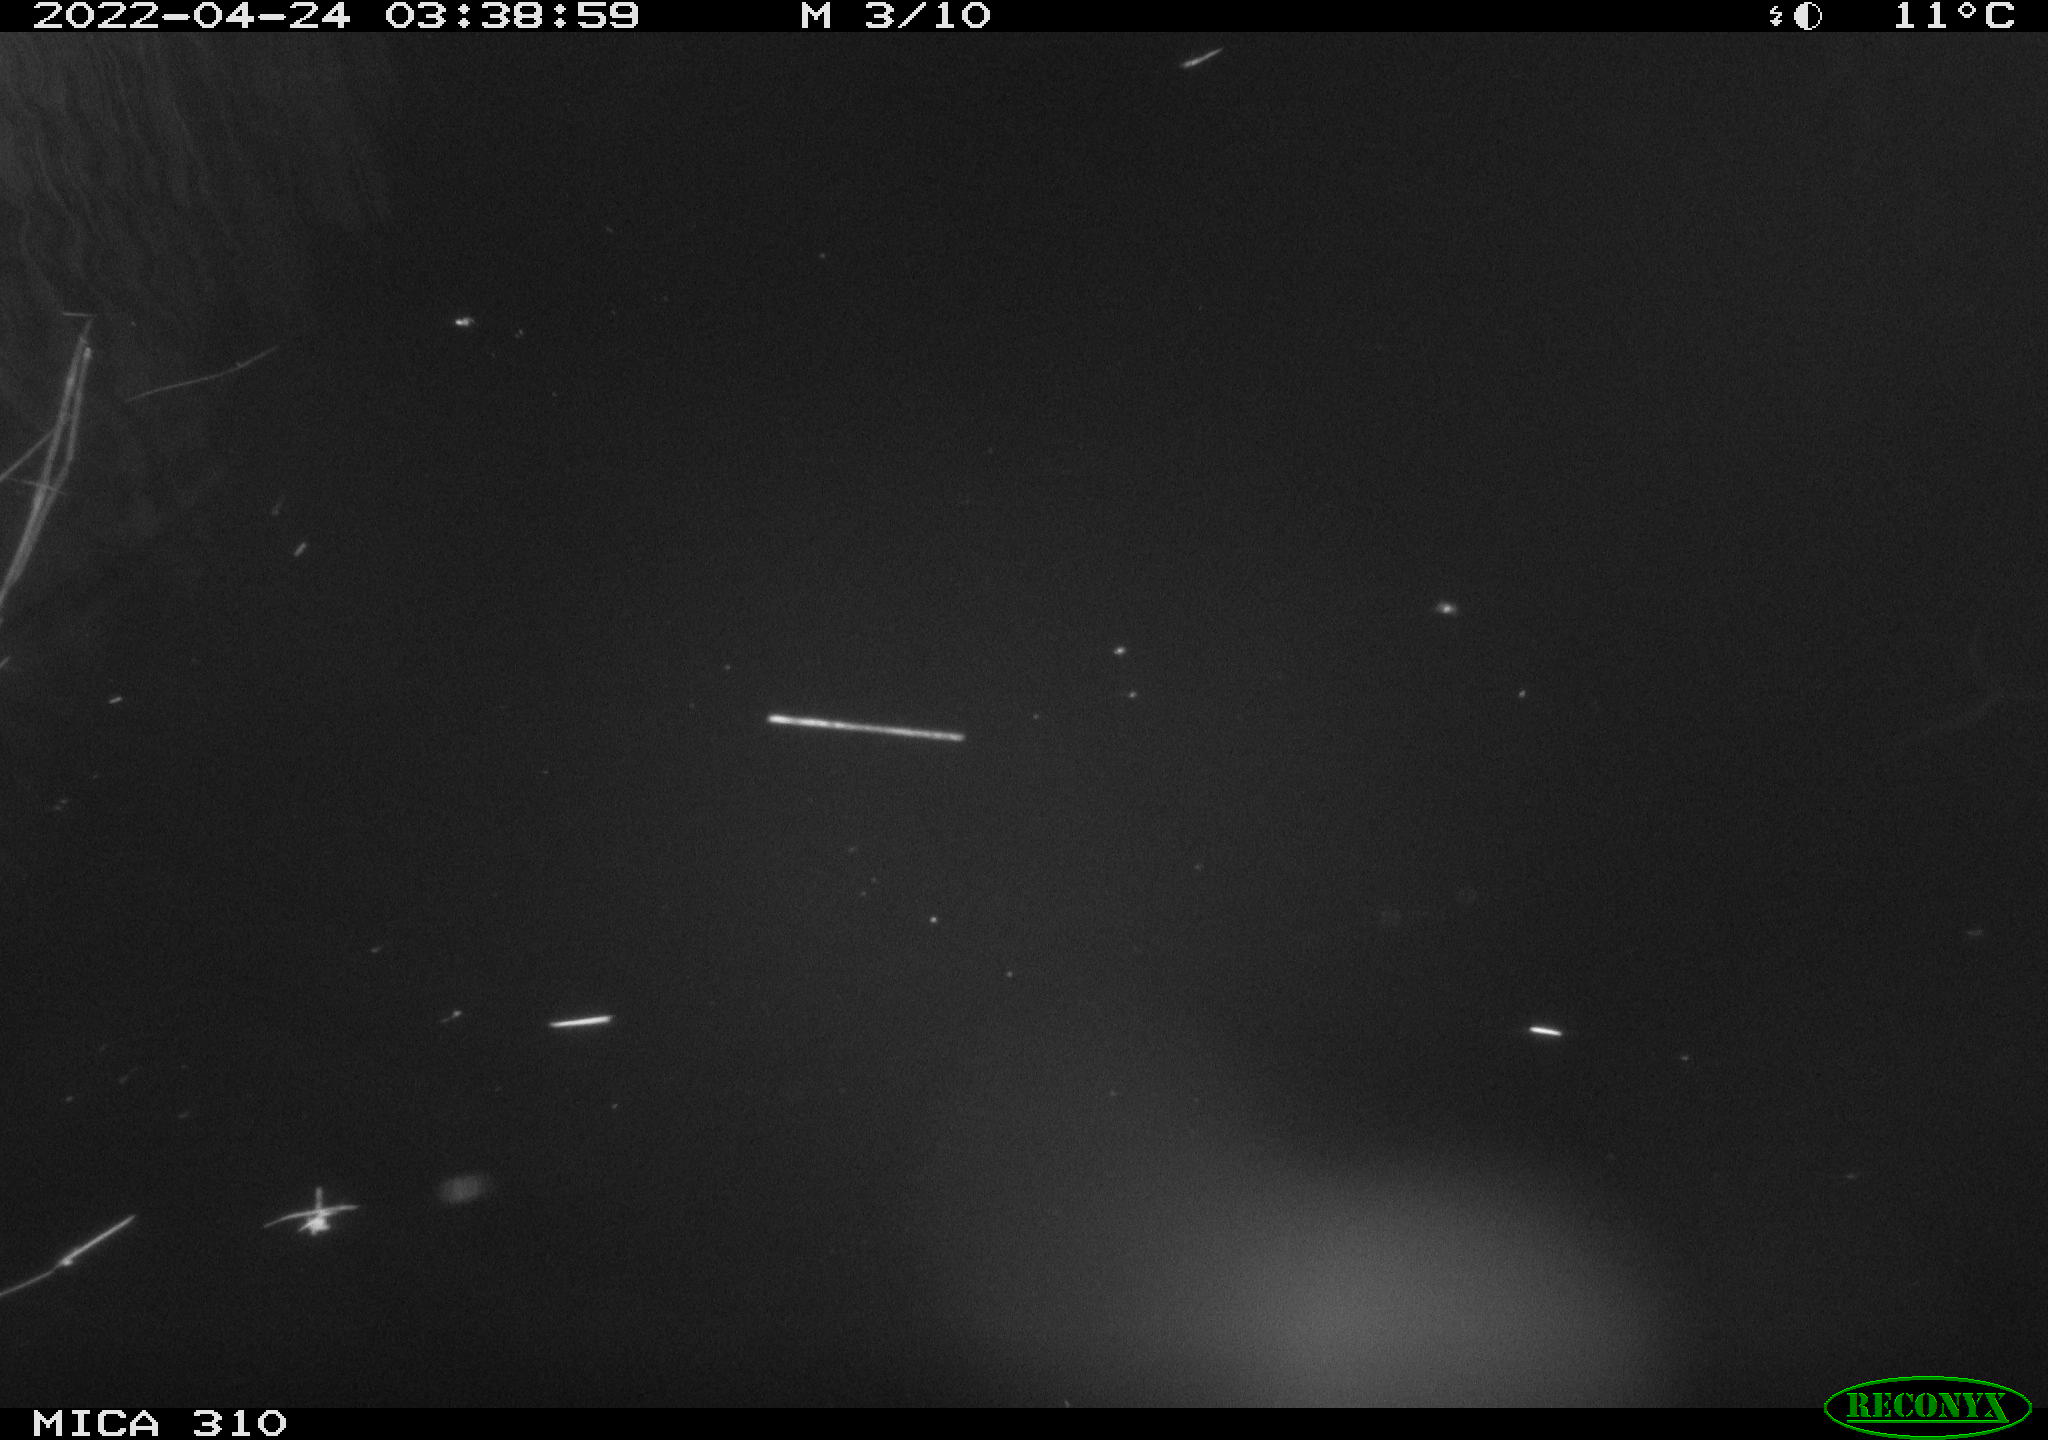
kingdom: Animalia
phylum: Chordata
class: Aves
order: Anseriformes
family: Anatidae
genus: Anas
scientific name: Anas platyrhynchos
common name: Mallard
